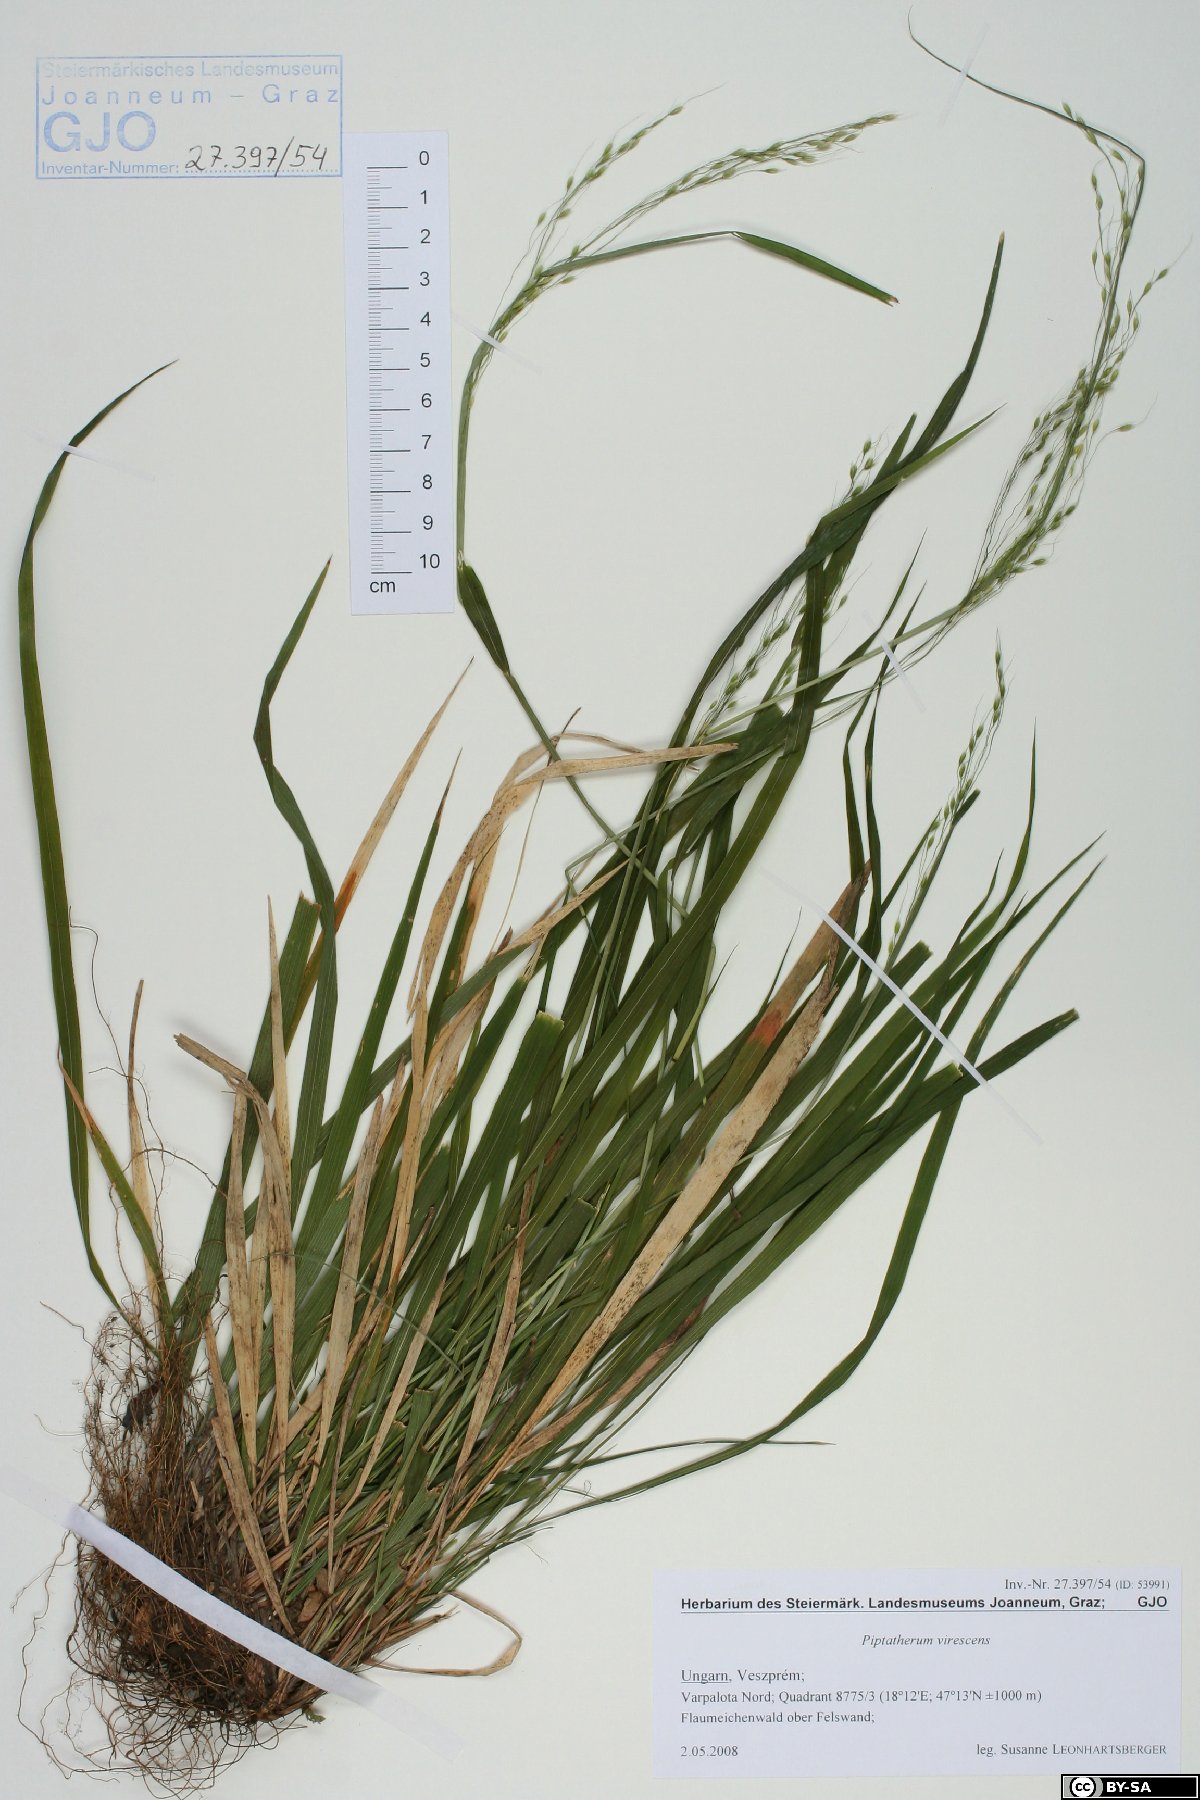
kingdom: Plantae
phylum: Tracheophyta
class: Liliopsida
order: Poales
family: Poaceae
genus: Achnatherum
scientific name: Achnatherum virescens
